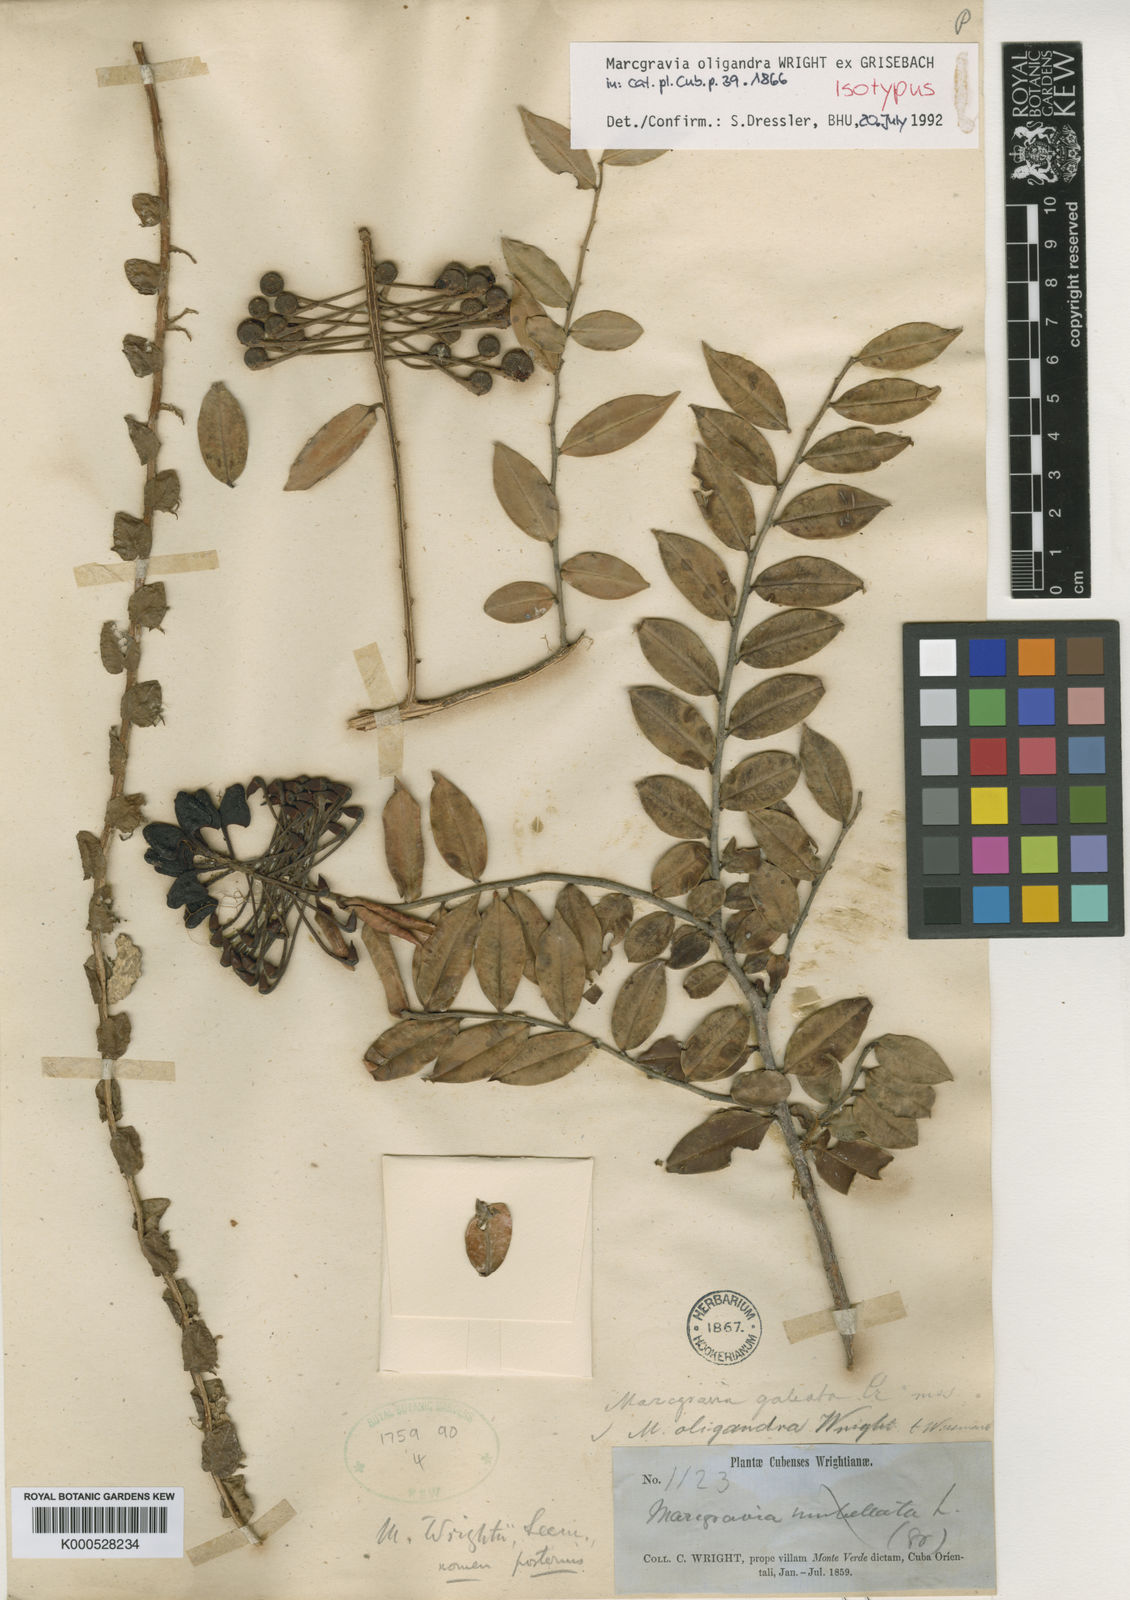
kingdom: Plantae
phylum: Tracheophyta
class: Magnoliopsida
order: Ericales
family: Marcgraviaceae
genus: Marcgravia
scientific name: Marcgravia oligandra
